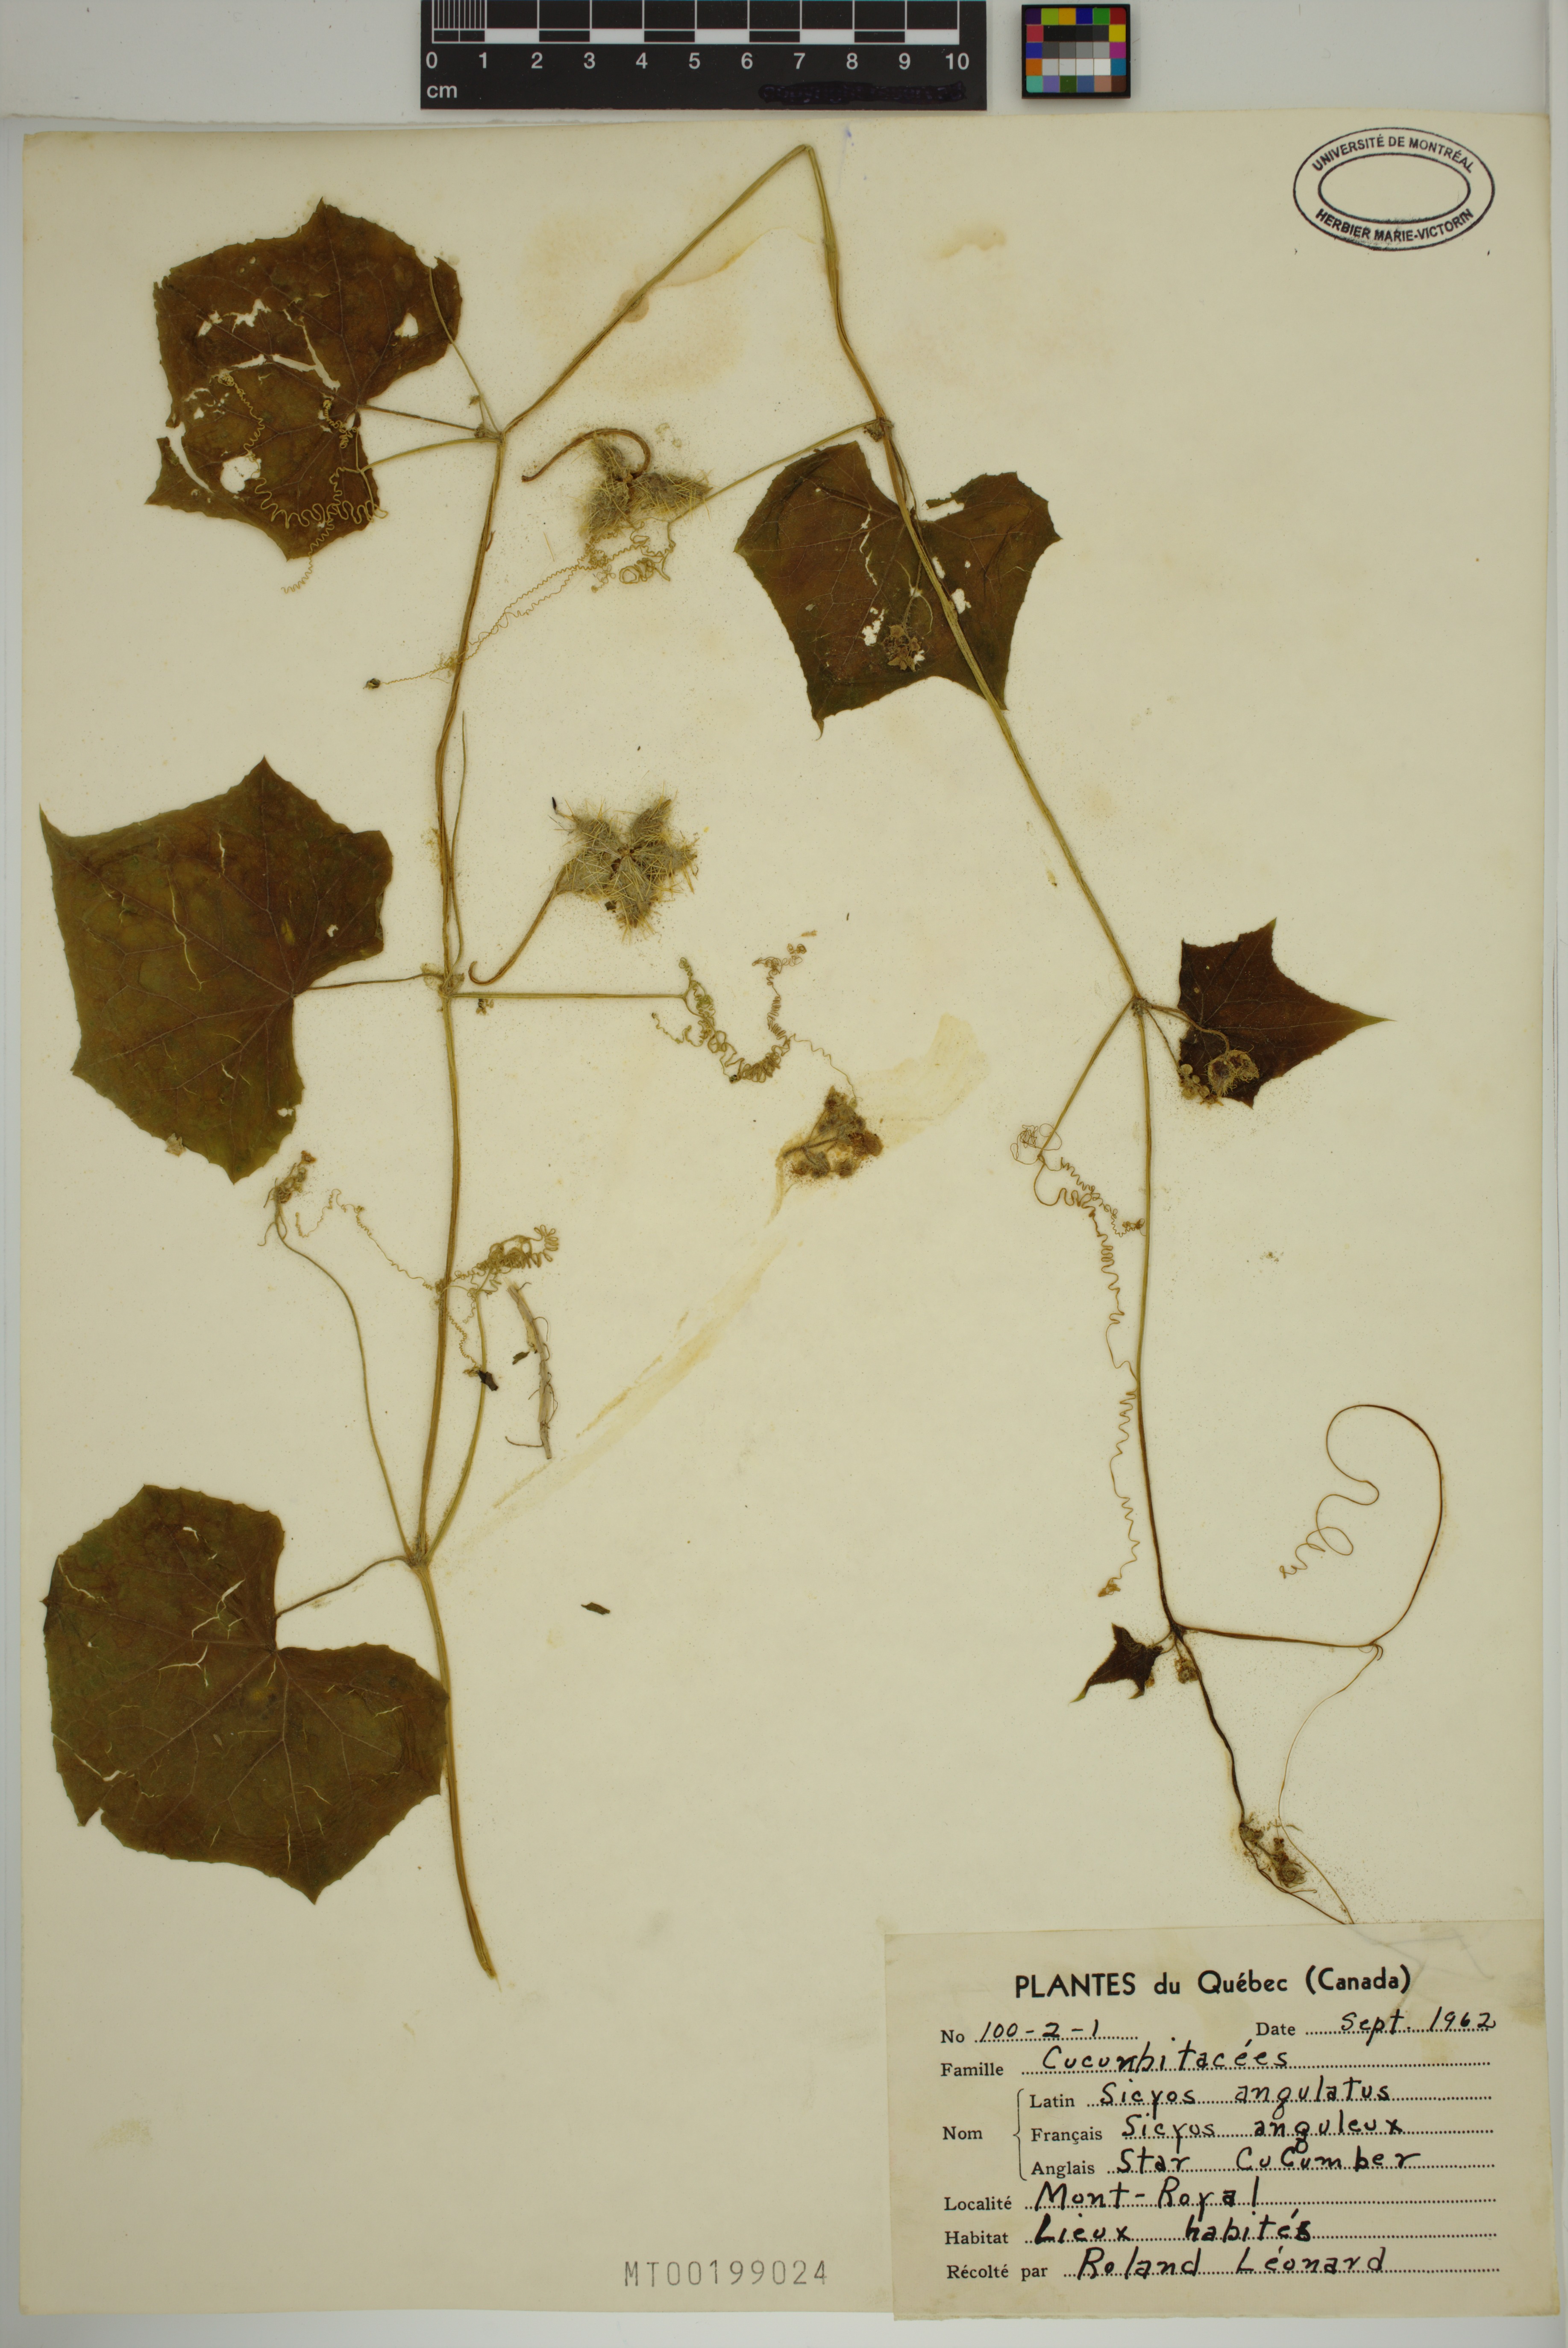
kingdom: Plantae
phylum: Tracheophyta
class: Magnoliopsida
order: Cucurbitales
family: Cucurbitaceae
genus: Sicyos
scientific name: Sicyos angulatus
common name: Angled burr cucumber
